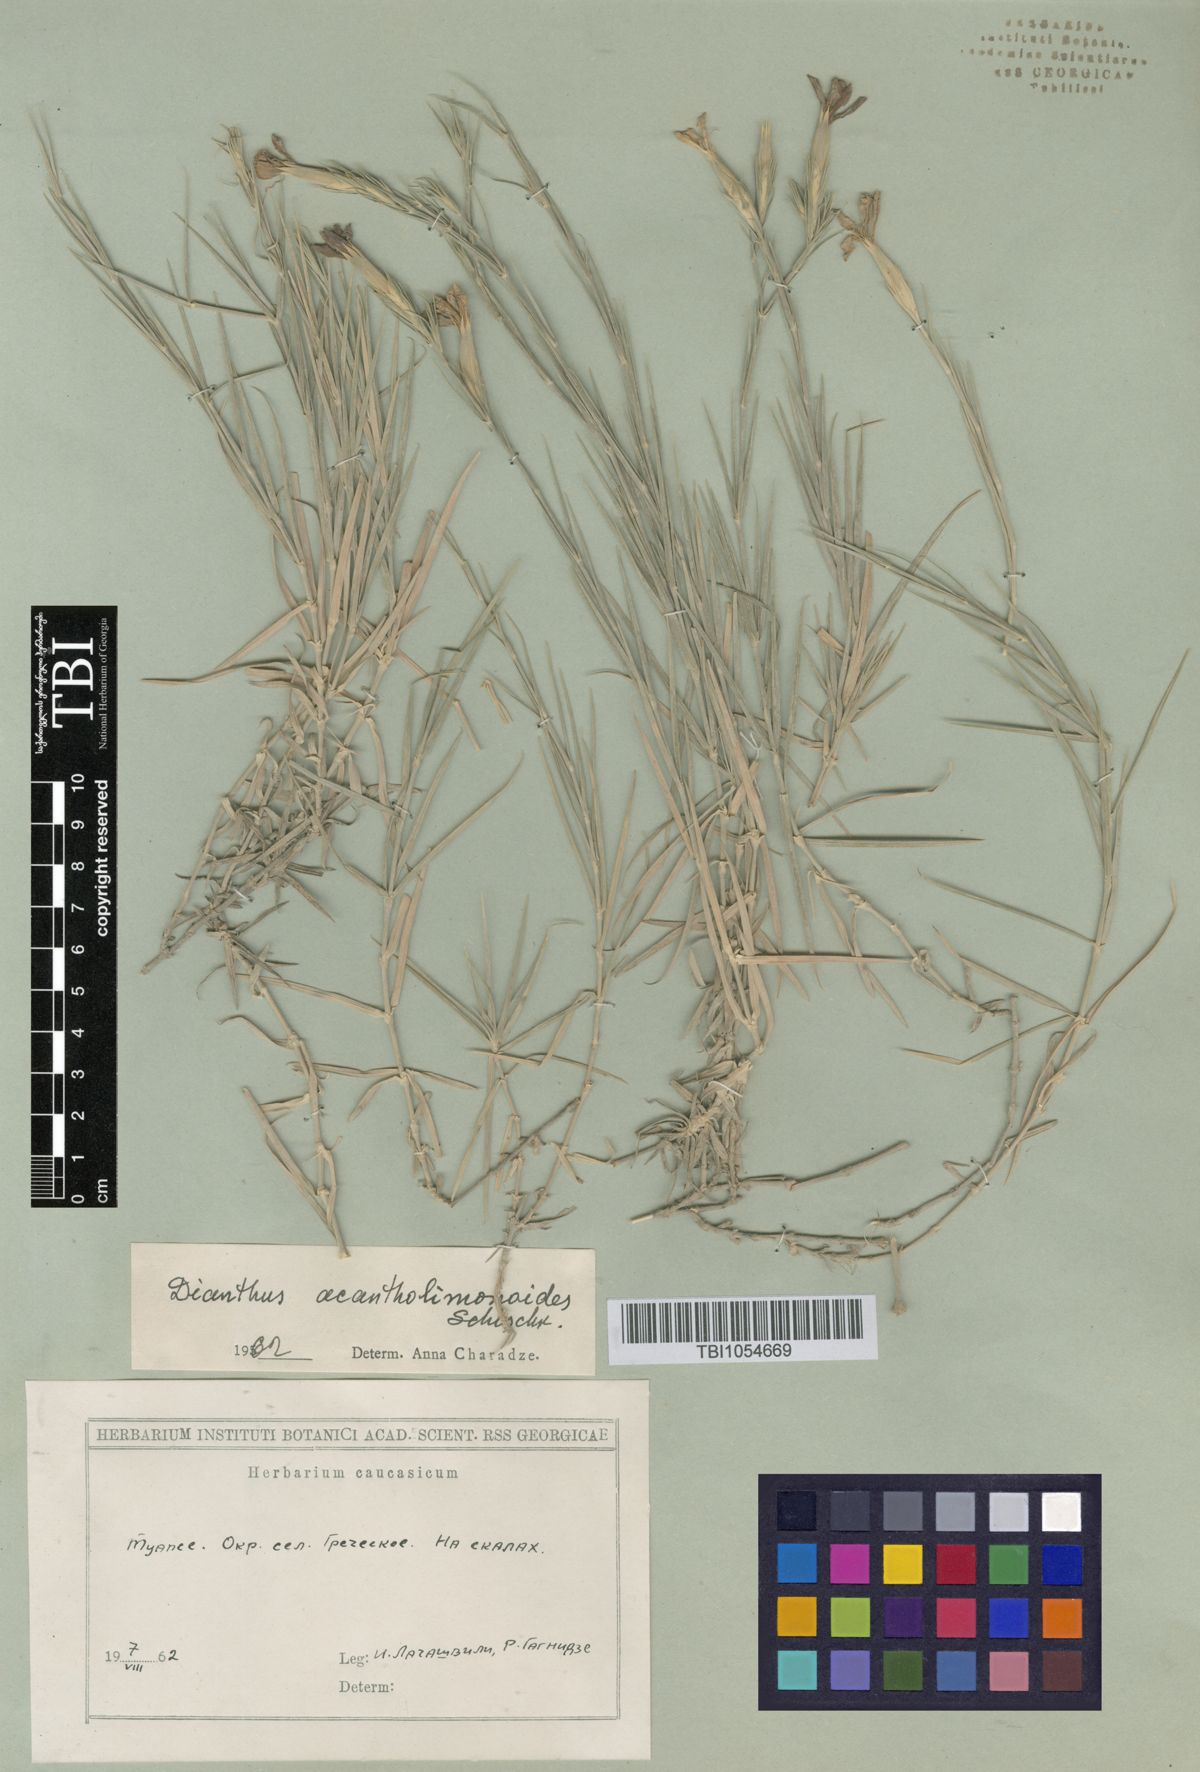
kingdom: Plantae
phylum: Tracheophyta
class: Magnoliopsida
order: Caryophyllales
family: Caryophyllaceae
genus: Dianthus
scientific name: Dianthus
